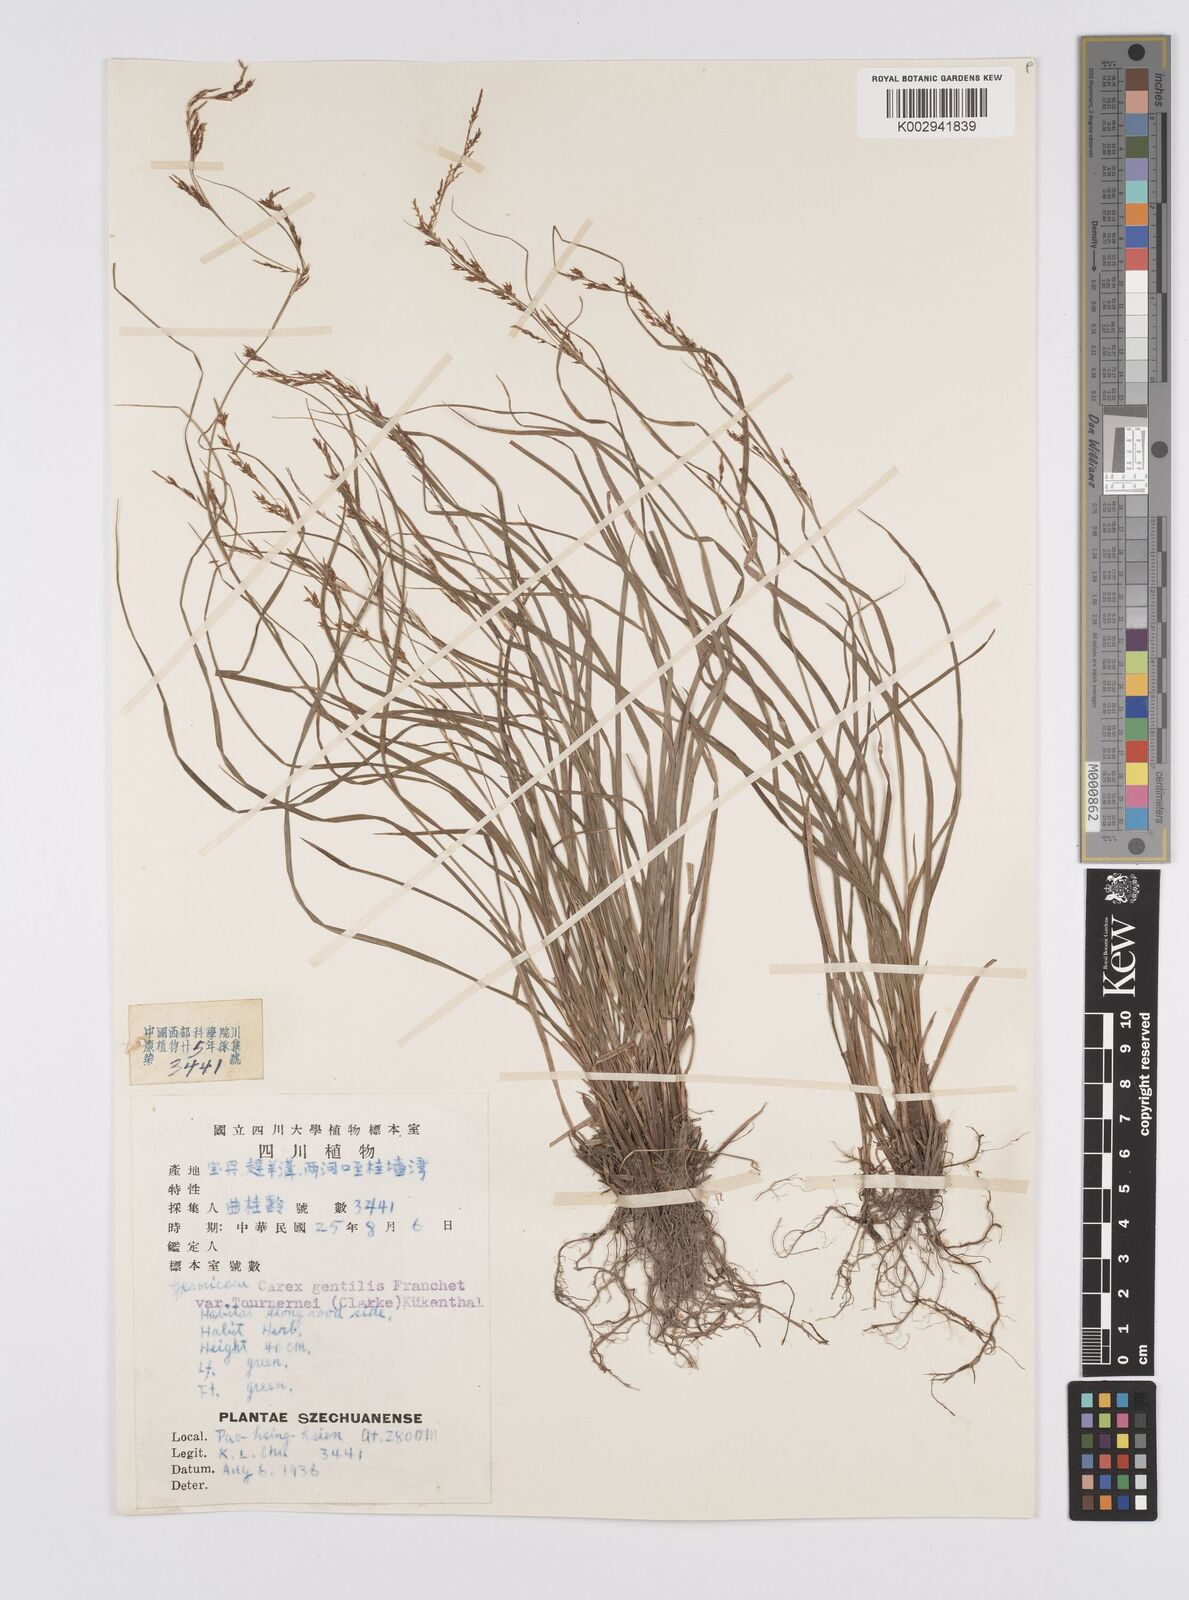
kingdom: Plantae
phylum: Tracheophyta
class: Liliopsida
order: Poales
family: Cyperaceae
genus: Carex
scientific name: Carex gentilis
